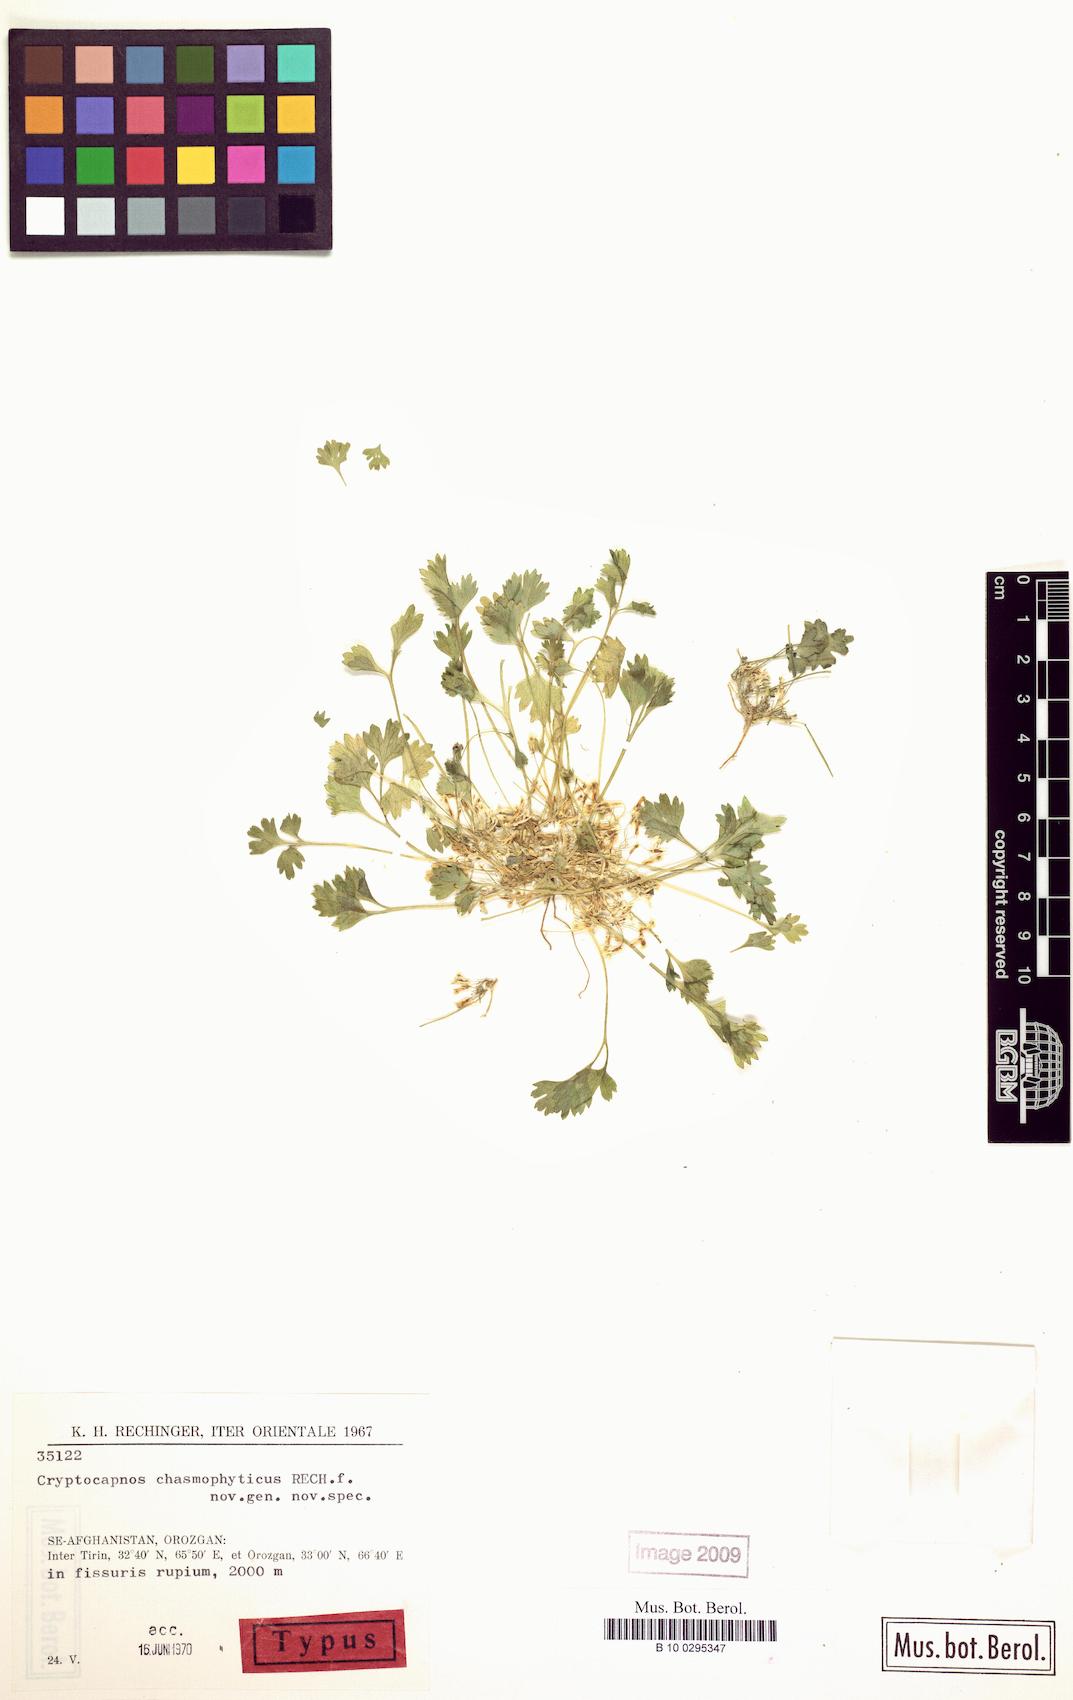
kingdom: Plantae
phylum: Tracheophyta
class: Magnoliopsida
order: Ranunculales
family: Papaveraceae
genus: Cryptocapnos
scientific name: Cryptocapnos chasmophytica
